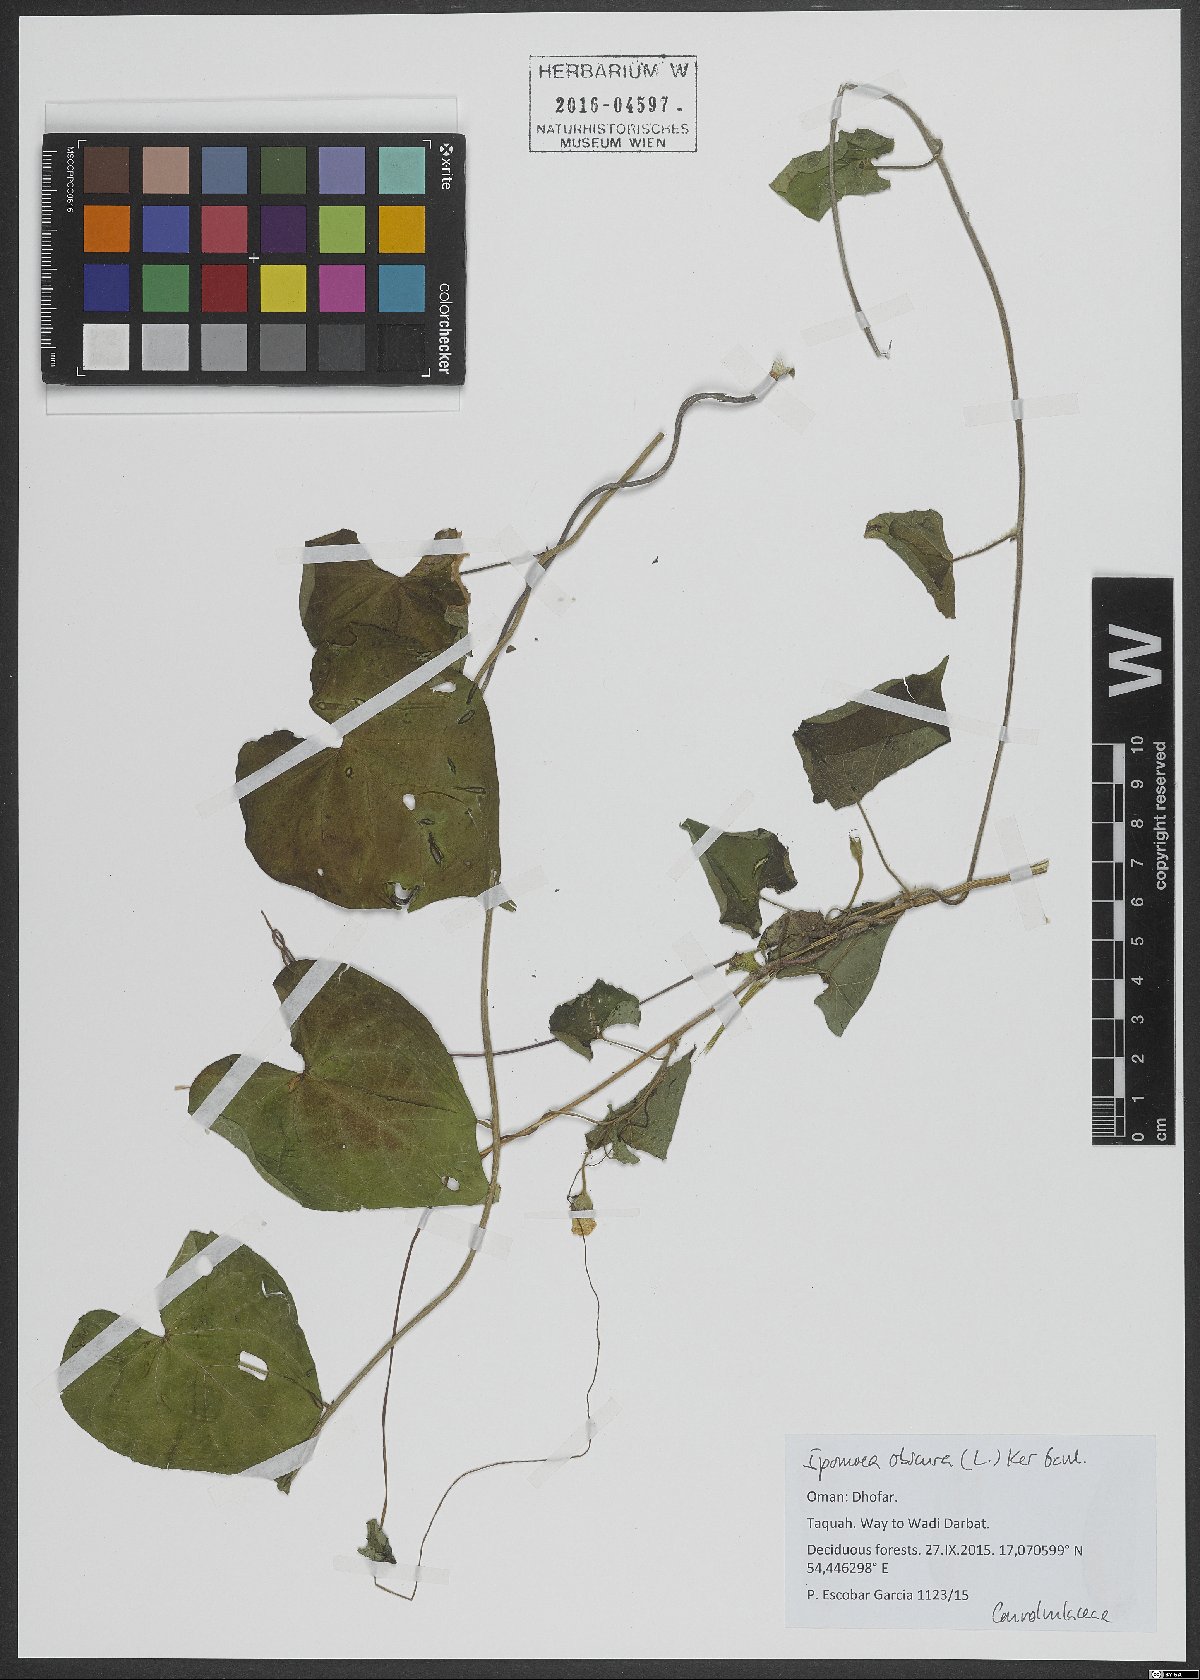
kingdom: Plantae
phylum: Tracheophyta
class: Magnoliopsida
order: Solanales
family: Convolvulaceae
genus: Ipomoea
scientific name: Ipomoea obscura
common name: Obscure morning-glory
